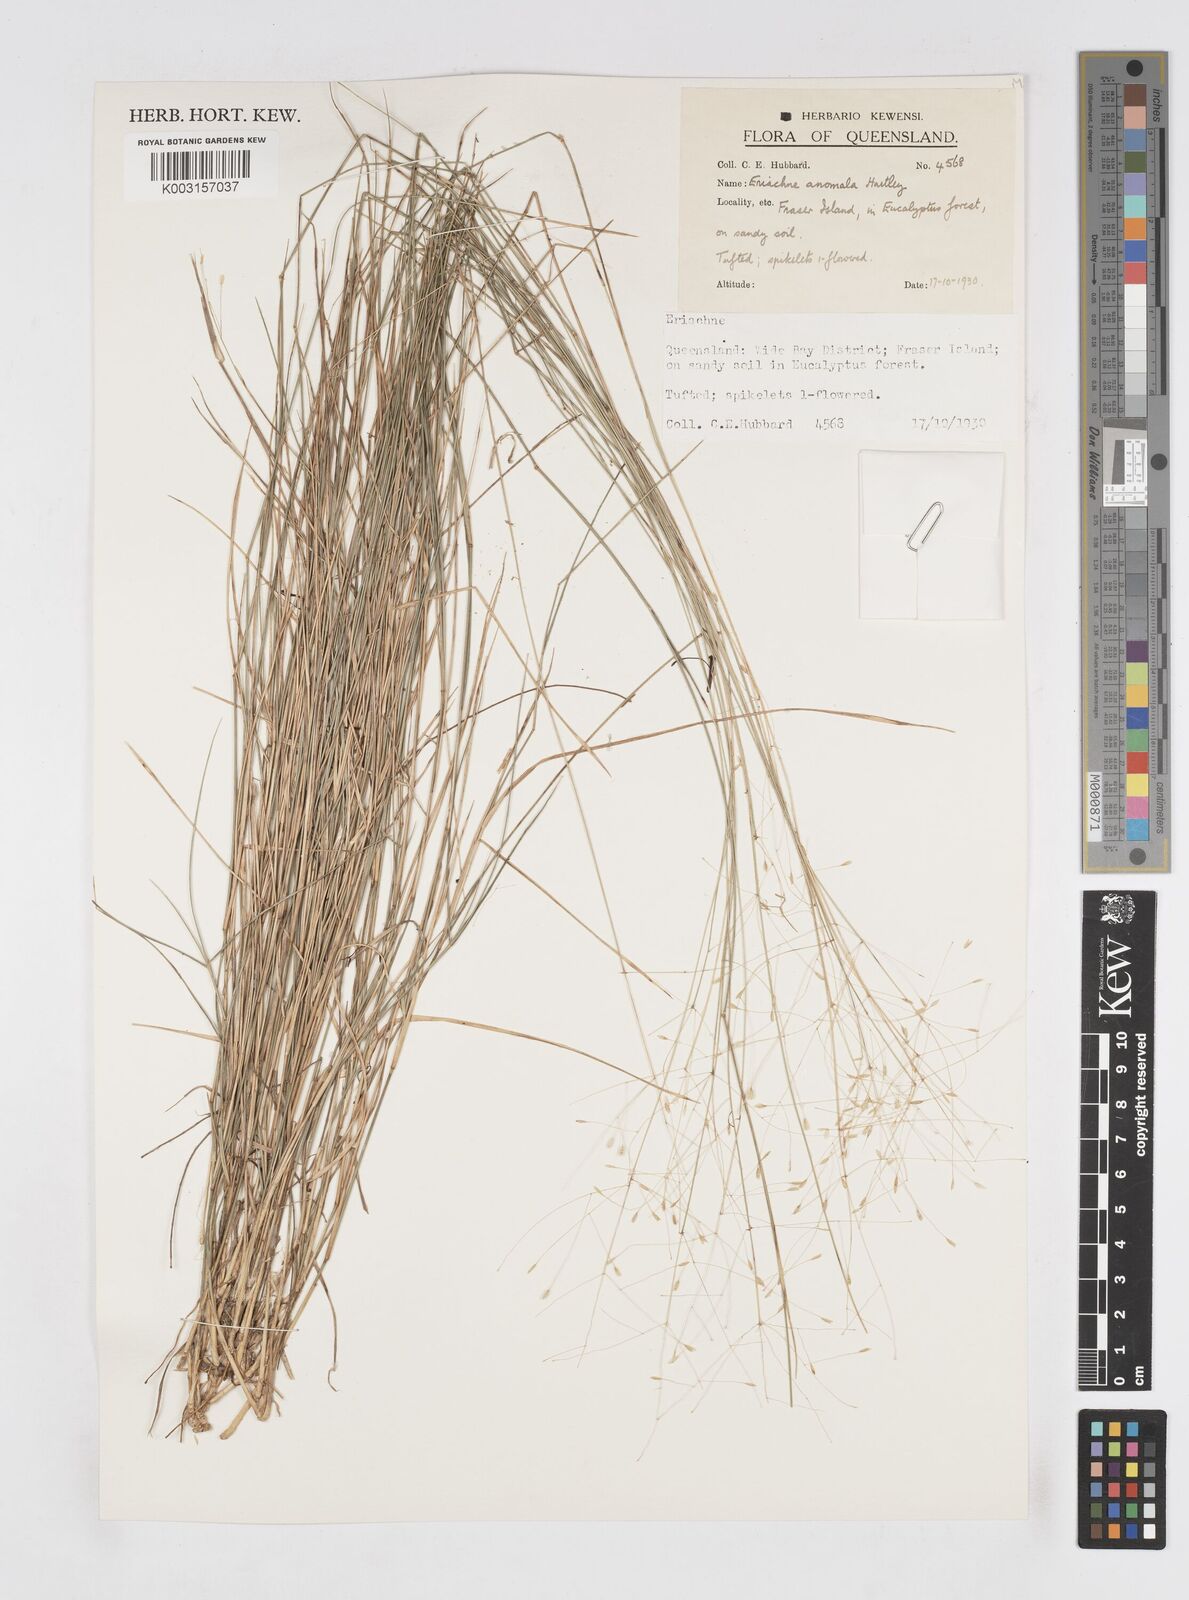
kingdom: Plantae
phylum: Tracheophyta
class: Liliopsida
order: Poales
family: Poaceae
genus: Eriachne
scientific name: Eriachne pallescens
